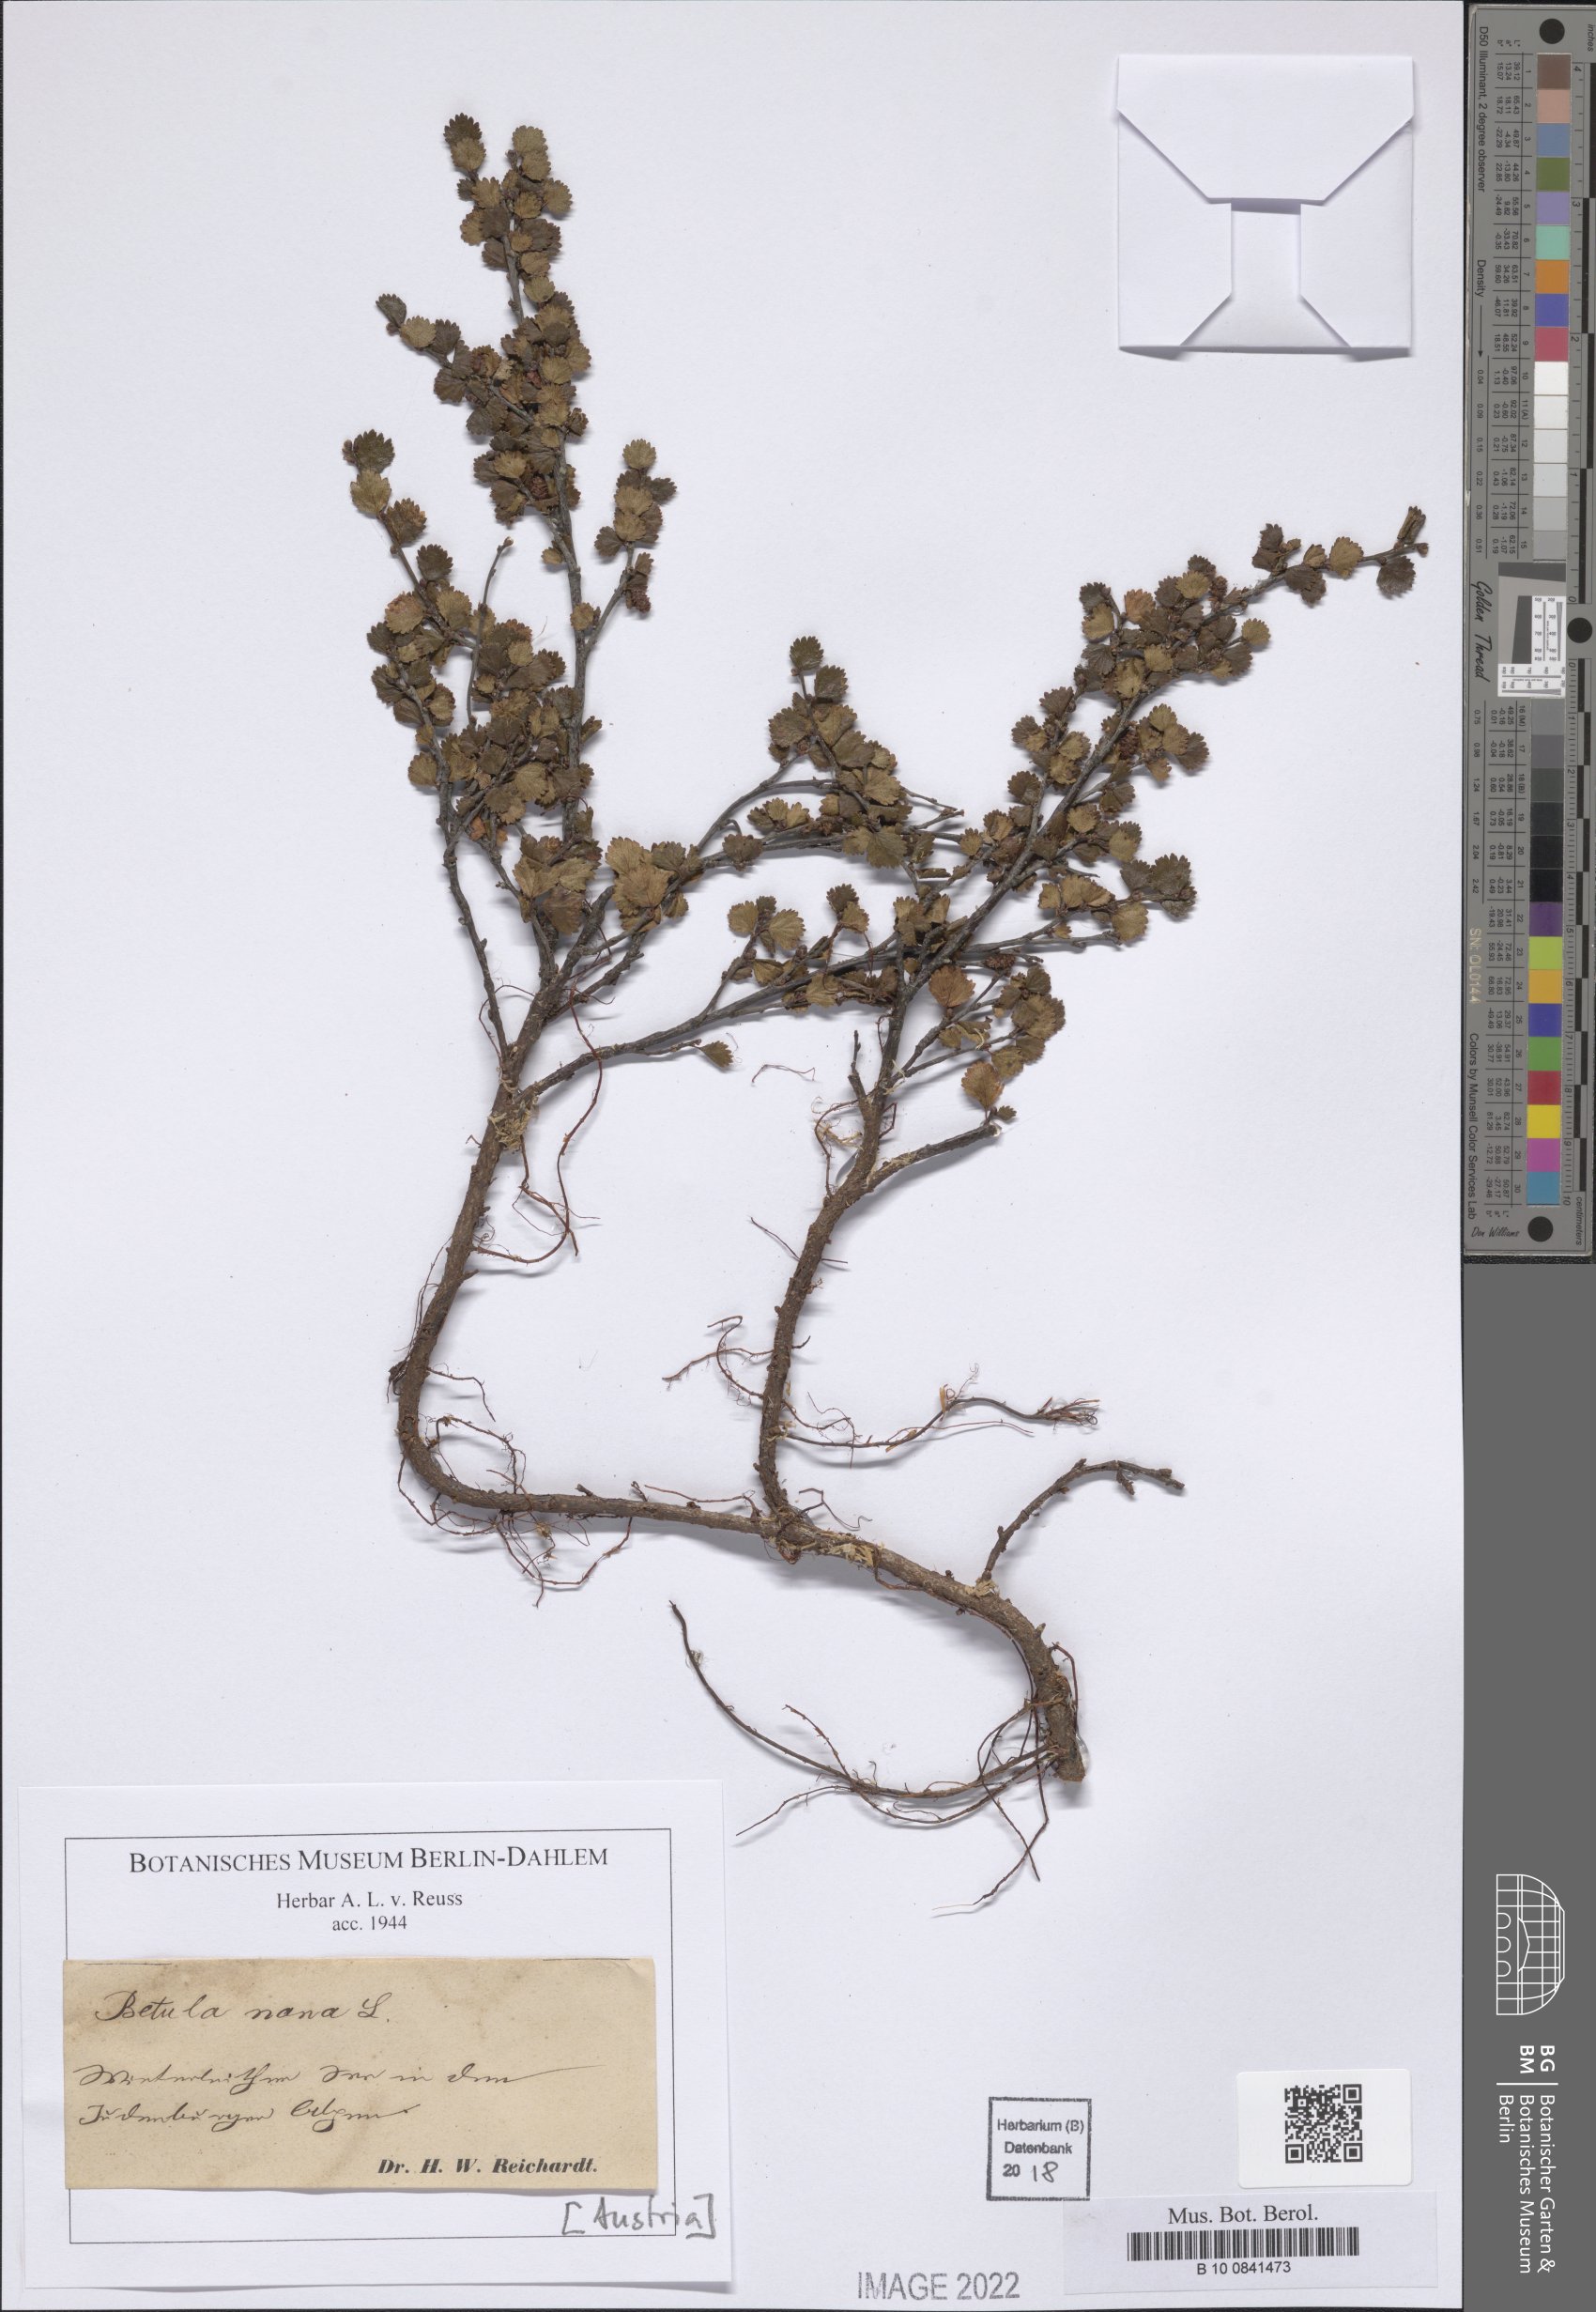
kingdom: Plantae
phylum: Tracheophyta
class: Magnoliopsida
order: Fagales
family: Betulaceae
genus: Betula
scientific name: Betula nana
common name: Arctic dwarf birch
